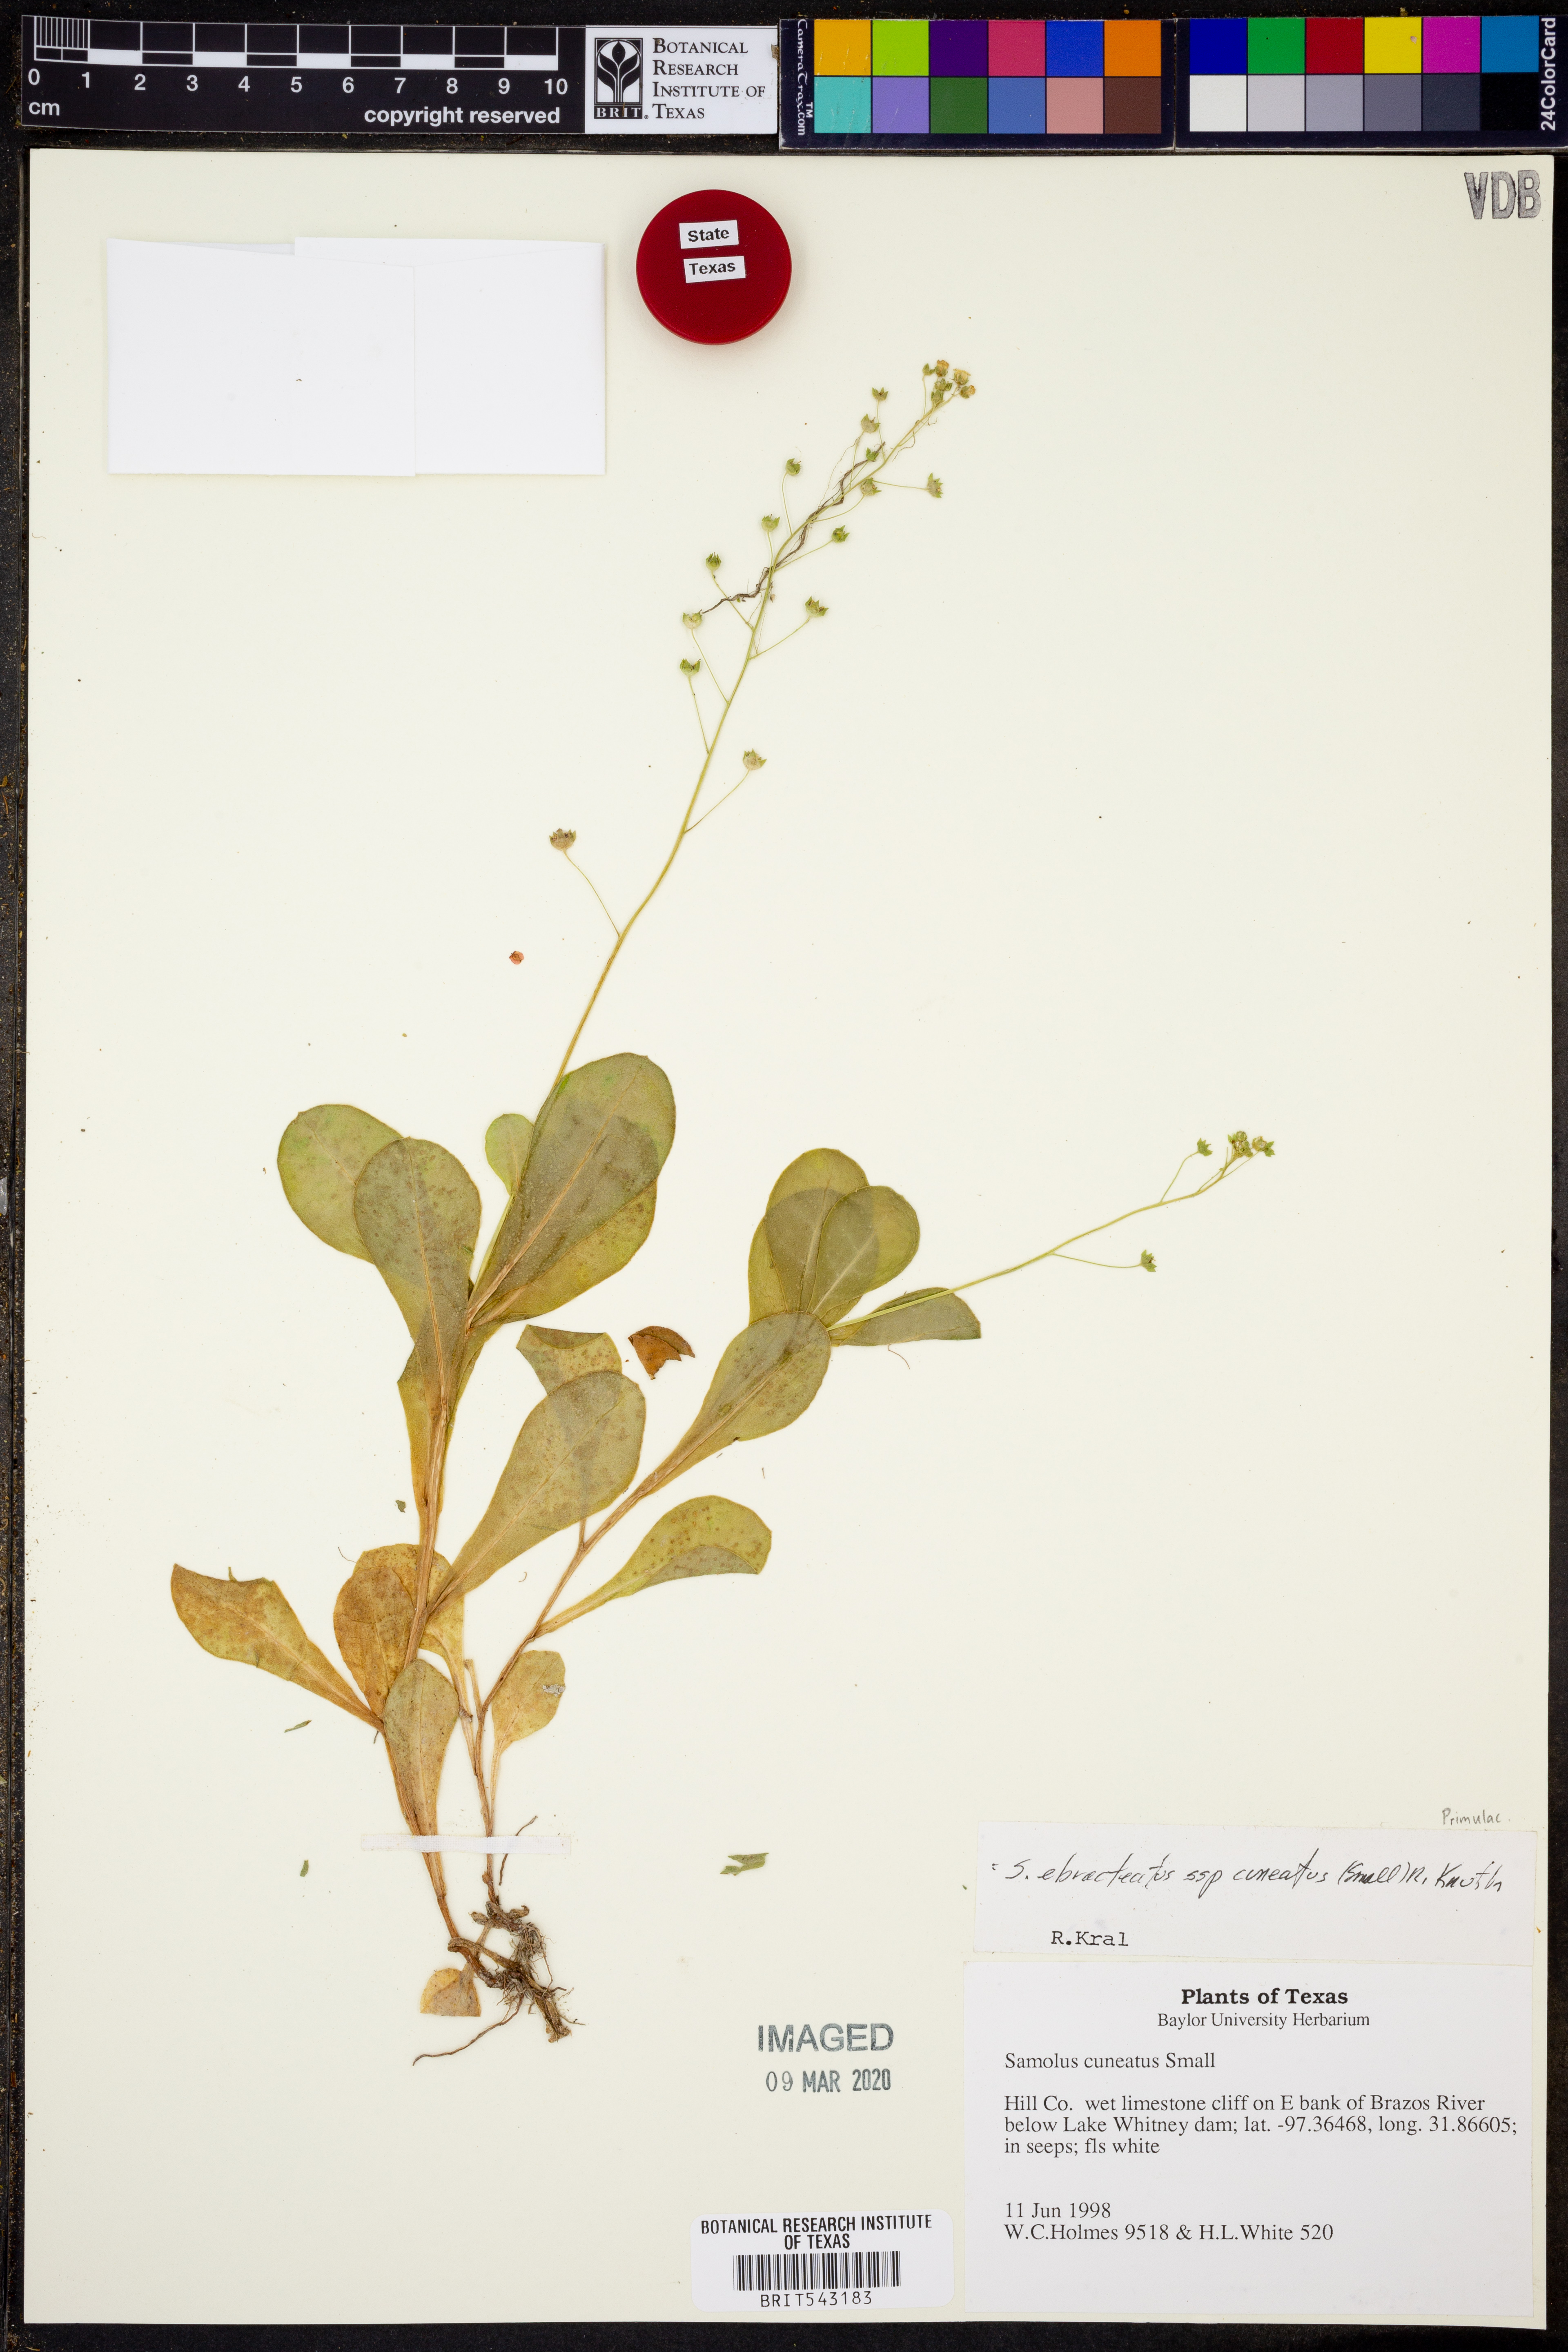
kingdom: Plantae
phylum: Tracheophyta
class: Magnoliopsida
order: Ericales
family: Primulaceae
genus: Samolus
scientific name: Samolus ebracteatus
